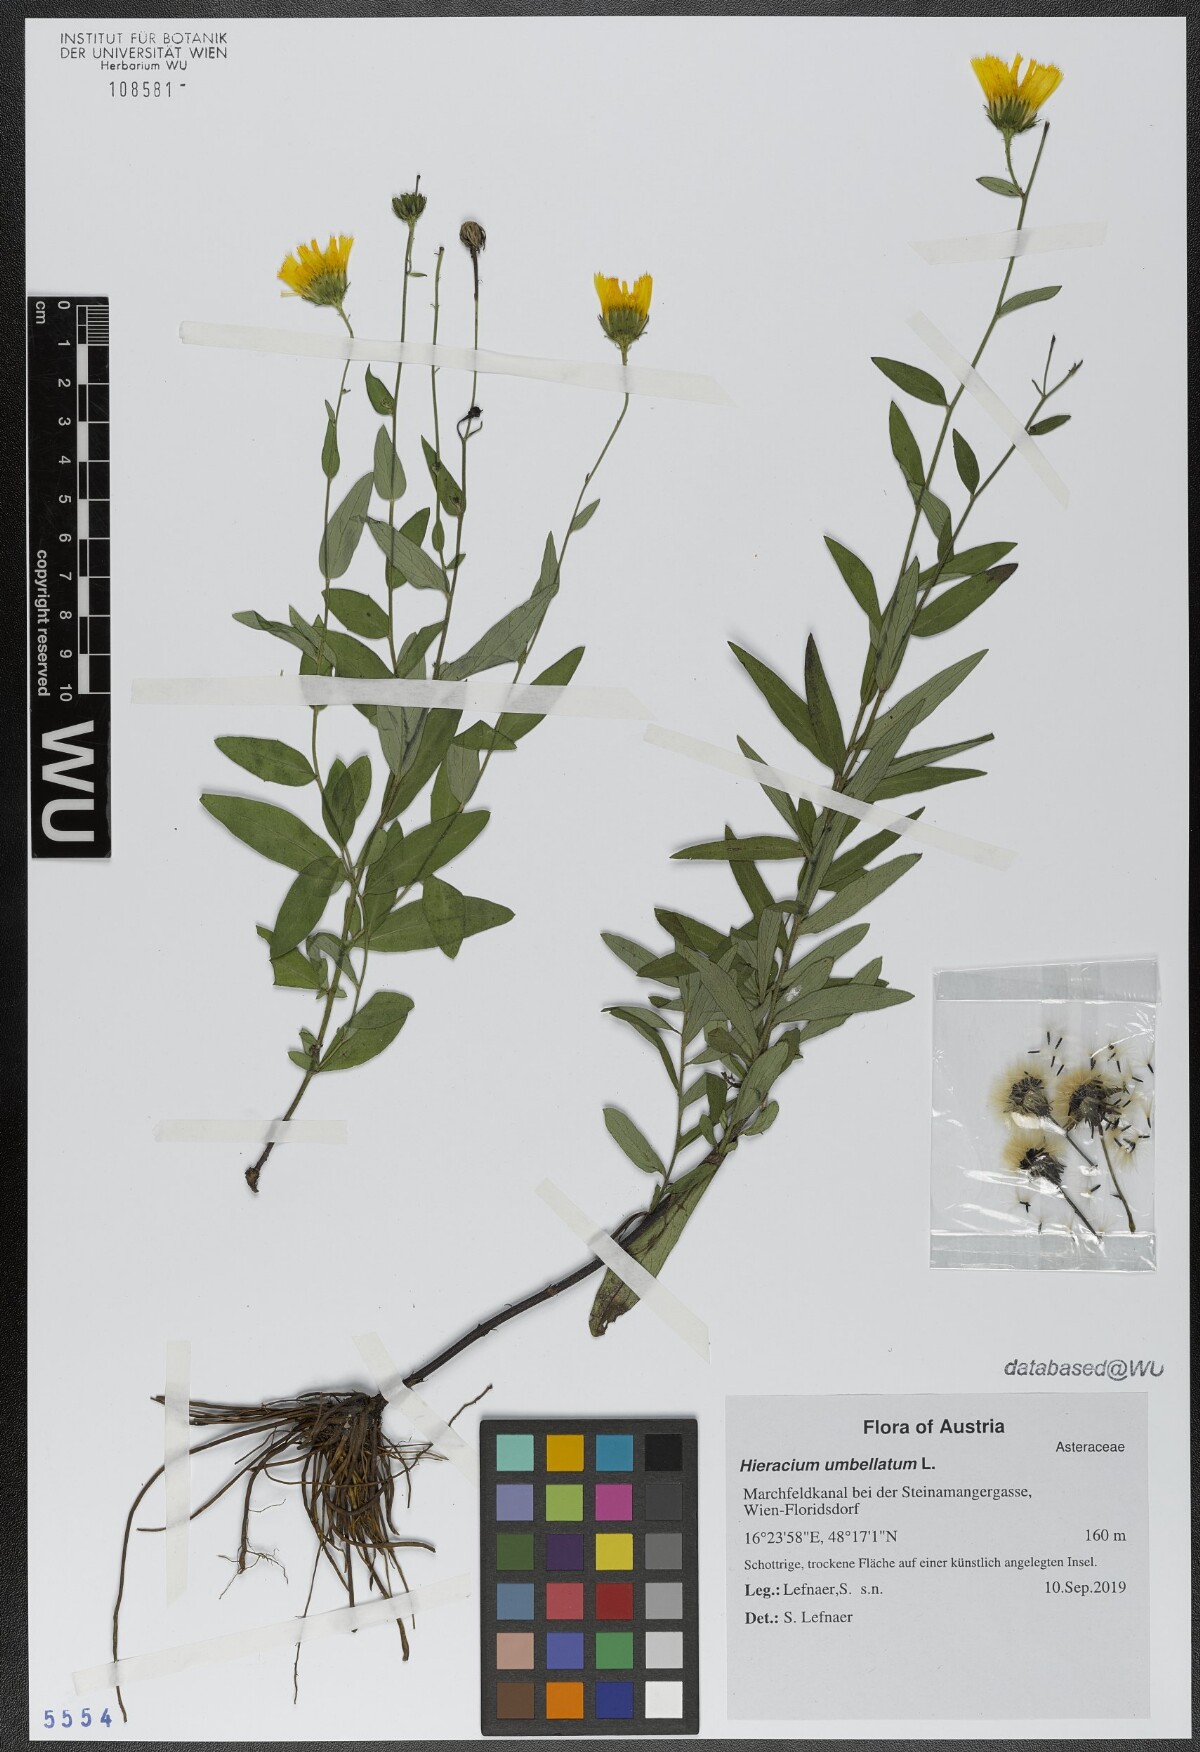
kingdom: Plantae
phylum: Tracheophyta
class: Magnoliopsida
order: Asterales
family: Asteraceae
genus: Hieracium
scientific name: Hieracium umbellatum
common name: Northern hawkweed
